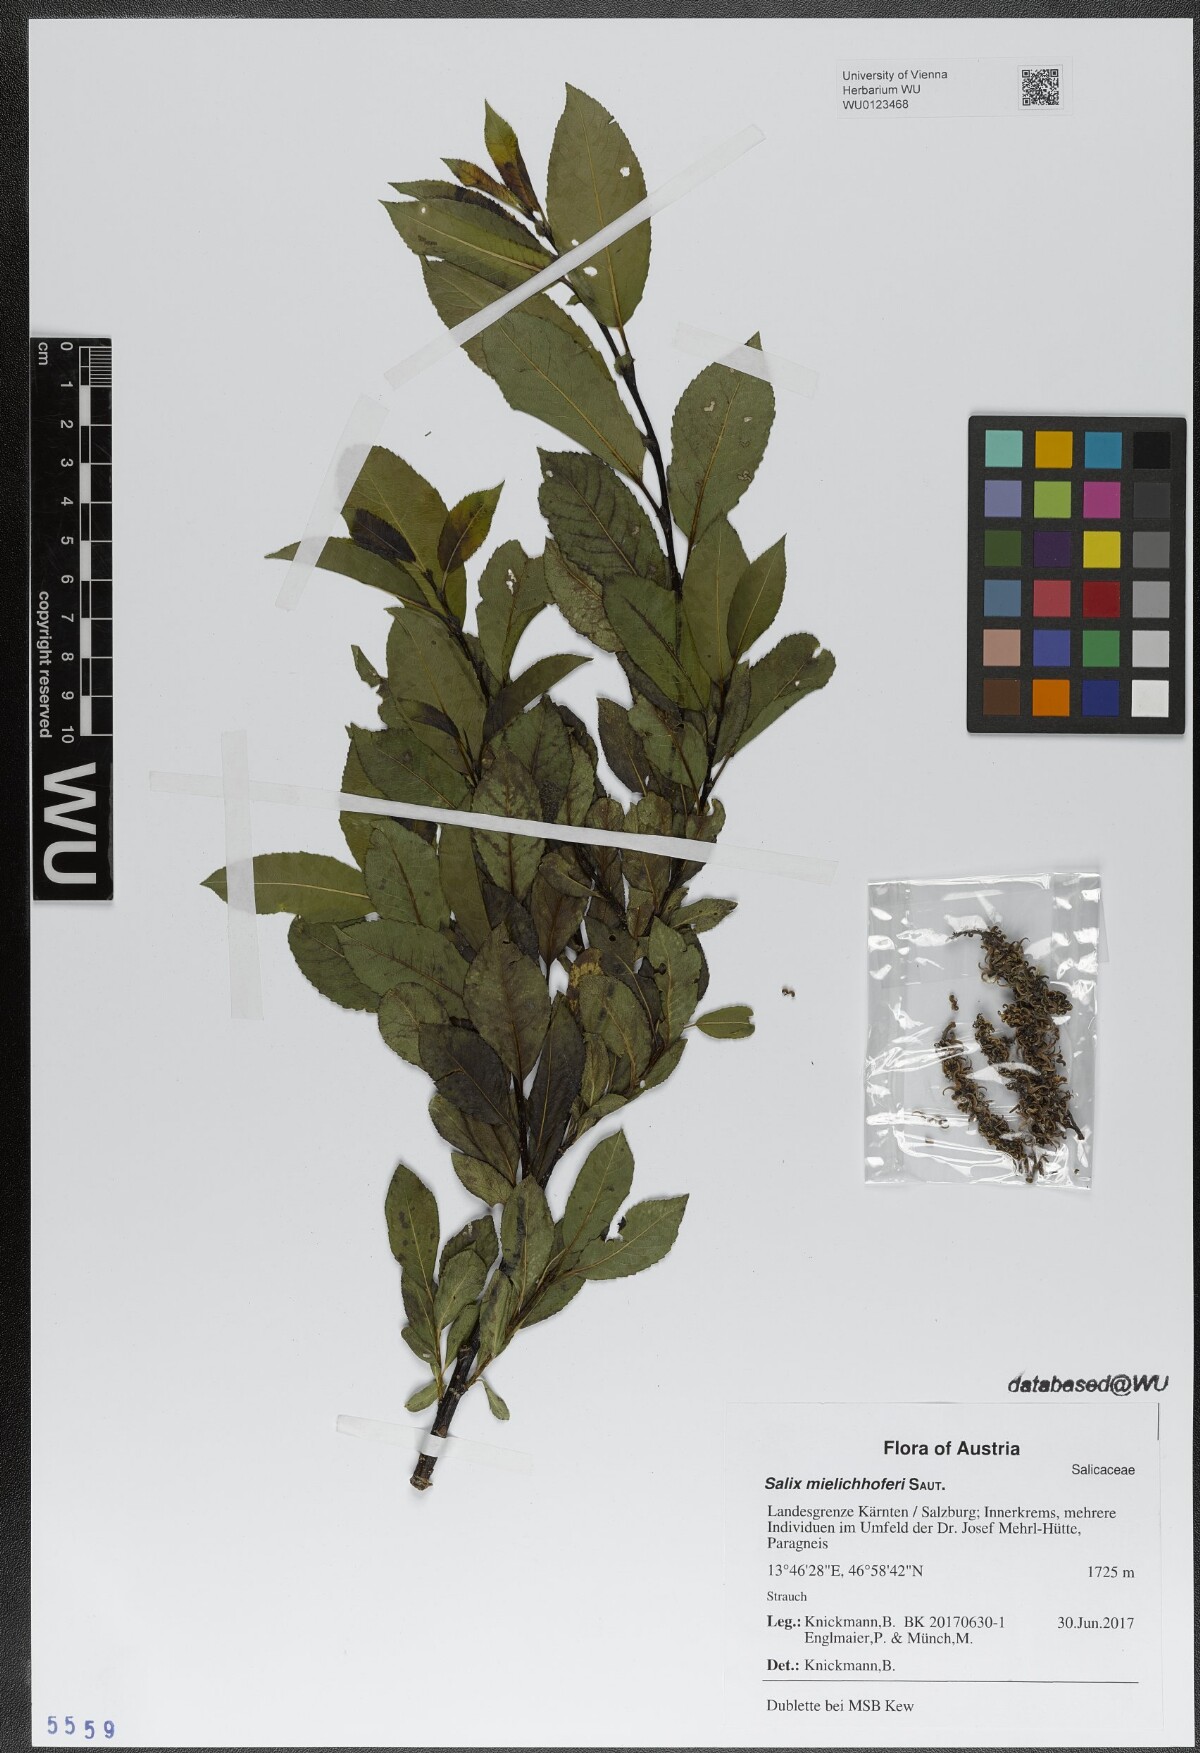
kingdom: Plantae
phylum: Tracheophyta
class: Magnoliopsida
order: Malpighiales
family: Salicaceae
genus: Salix
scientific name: Salix mielichhoferi
